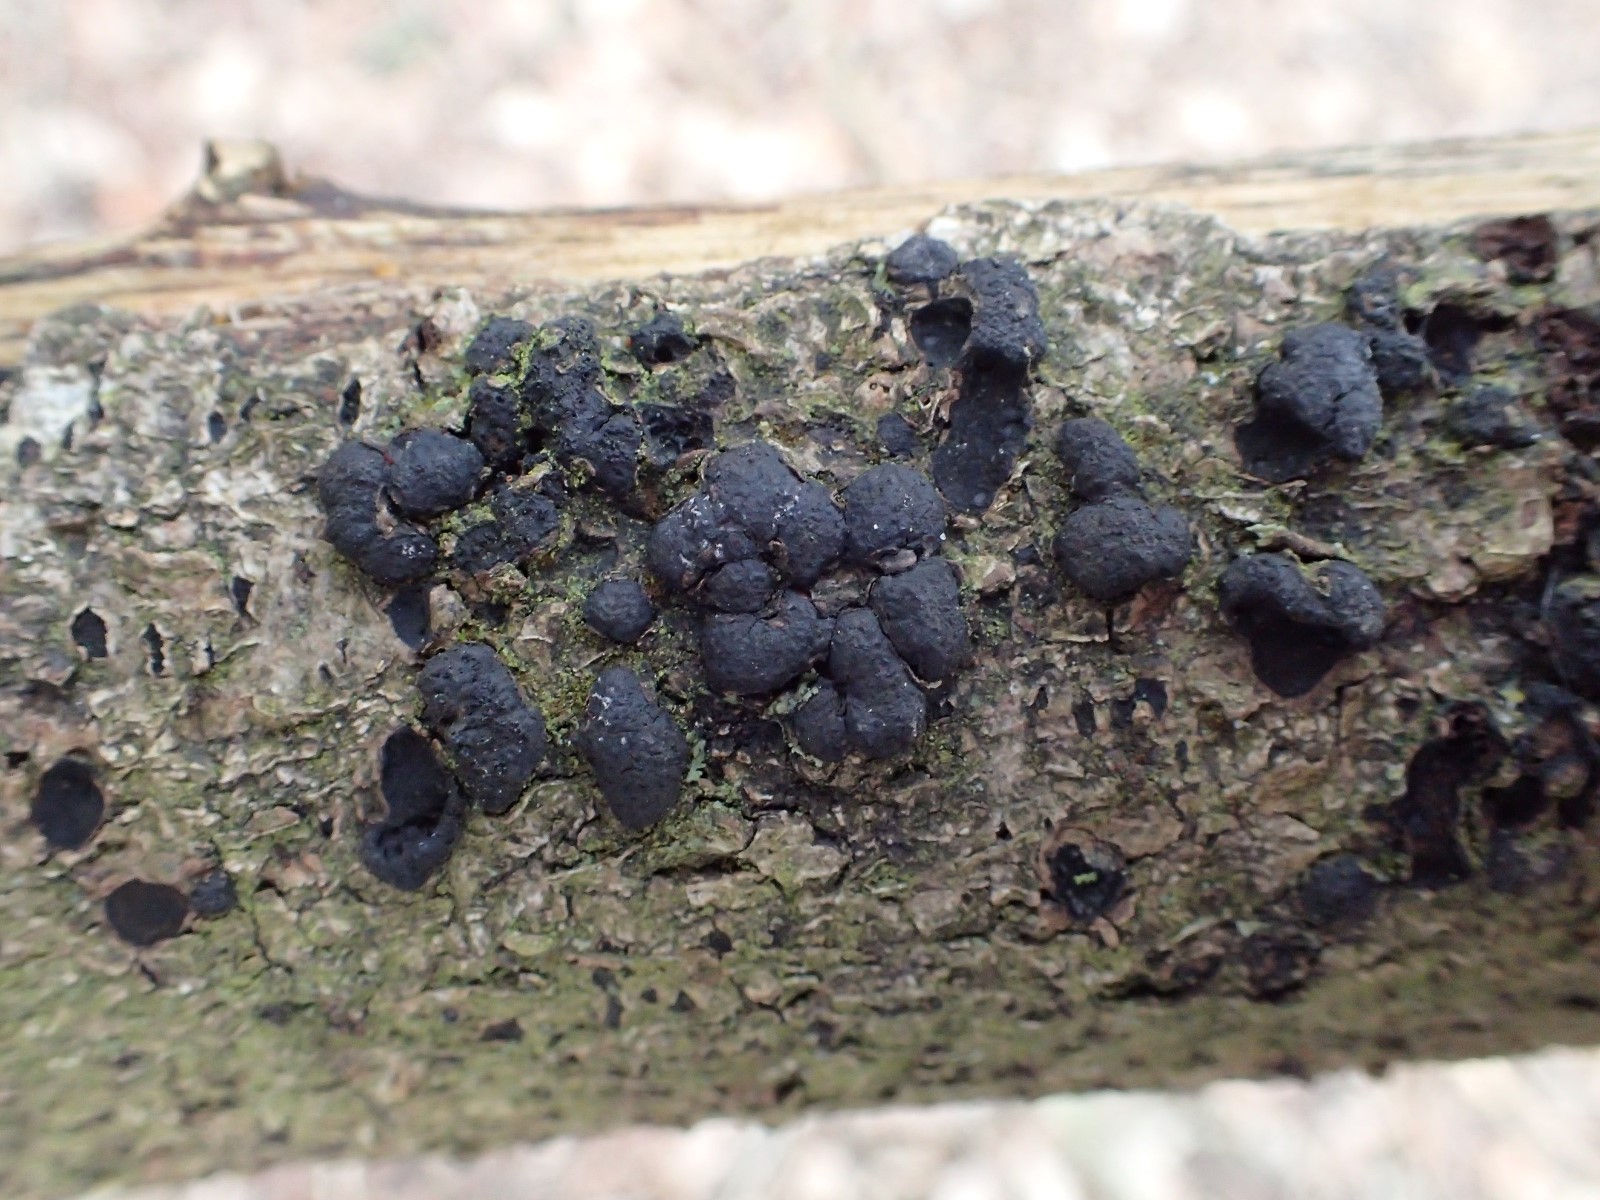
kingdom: Fungi
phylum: Ascomycota
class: Sordariomycetes
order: Xylariales
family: Hypoxylaceae
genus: Jackrogersella
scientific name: Jackrogersella cohaerens
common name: sammenflydende kulbær
